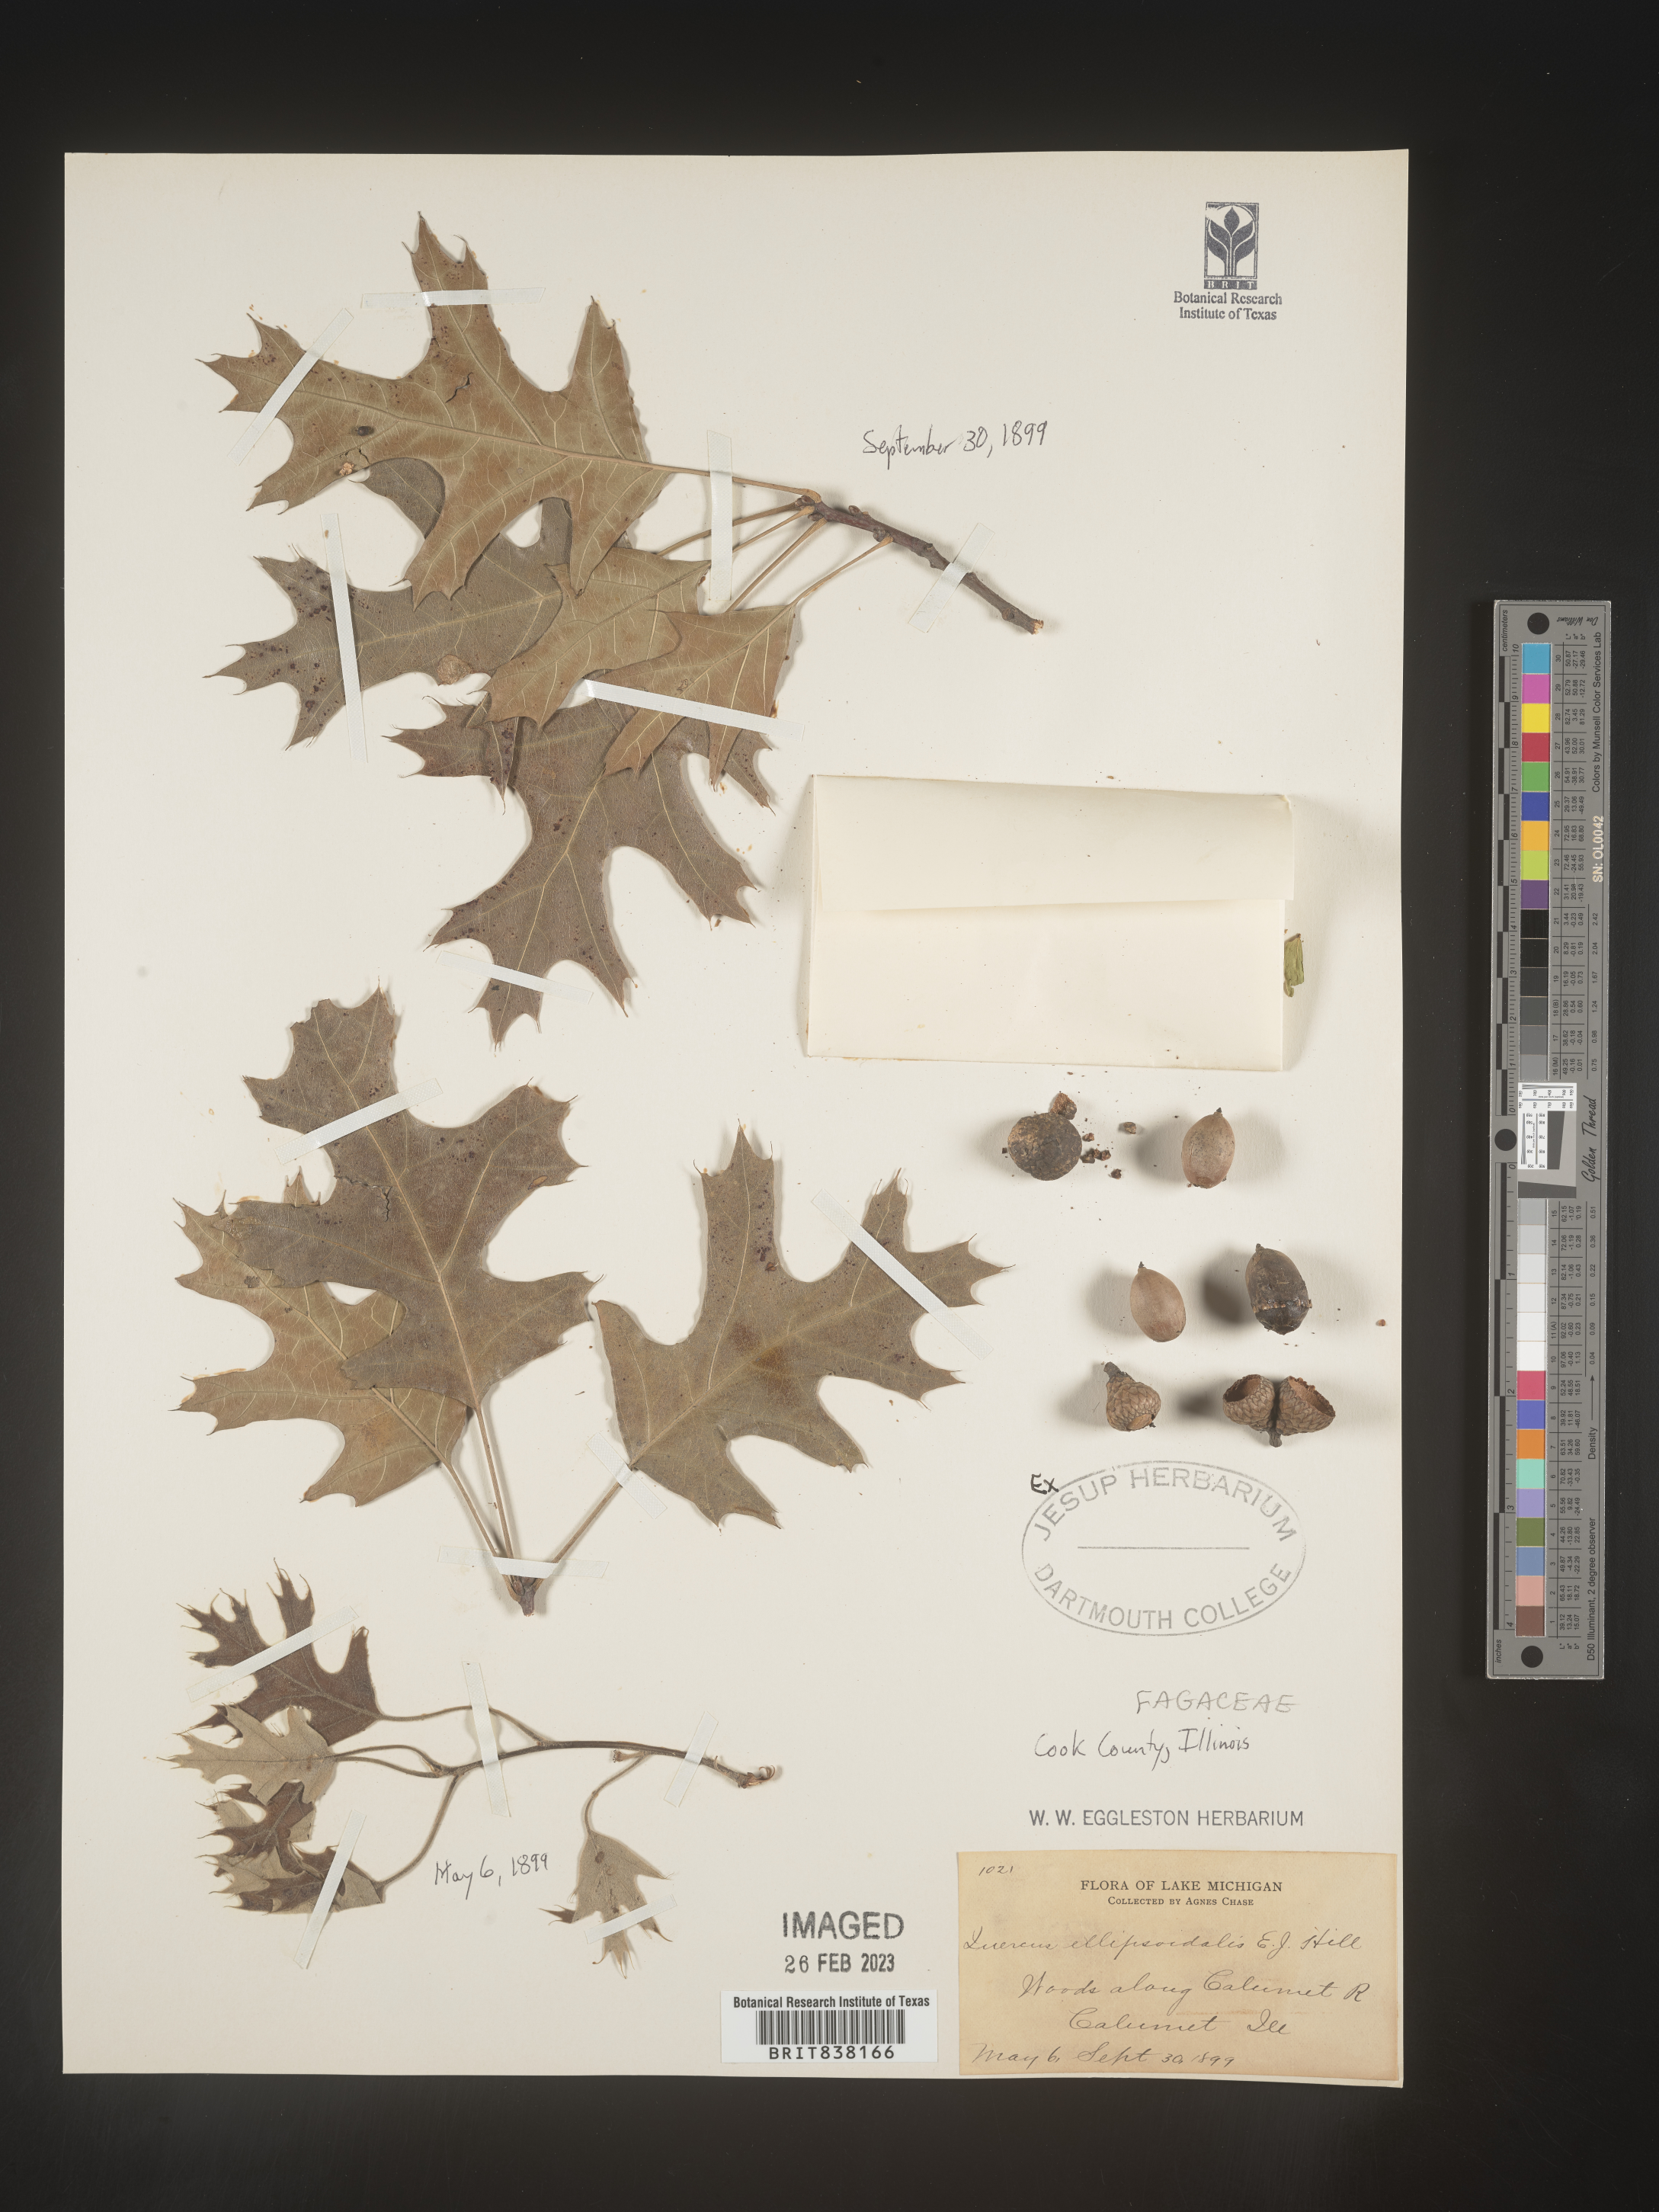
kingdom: Plantae
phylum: Tracheophyta
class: Magnoliopsida
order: Fagales
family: Fagaceae
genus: Quercus
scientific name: Quercus ellipsoidalis
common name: Hill's oak
